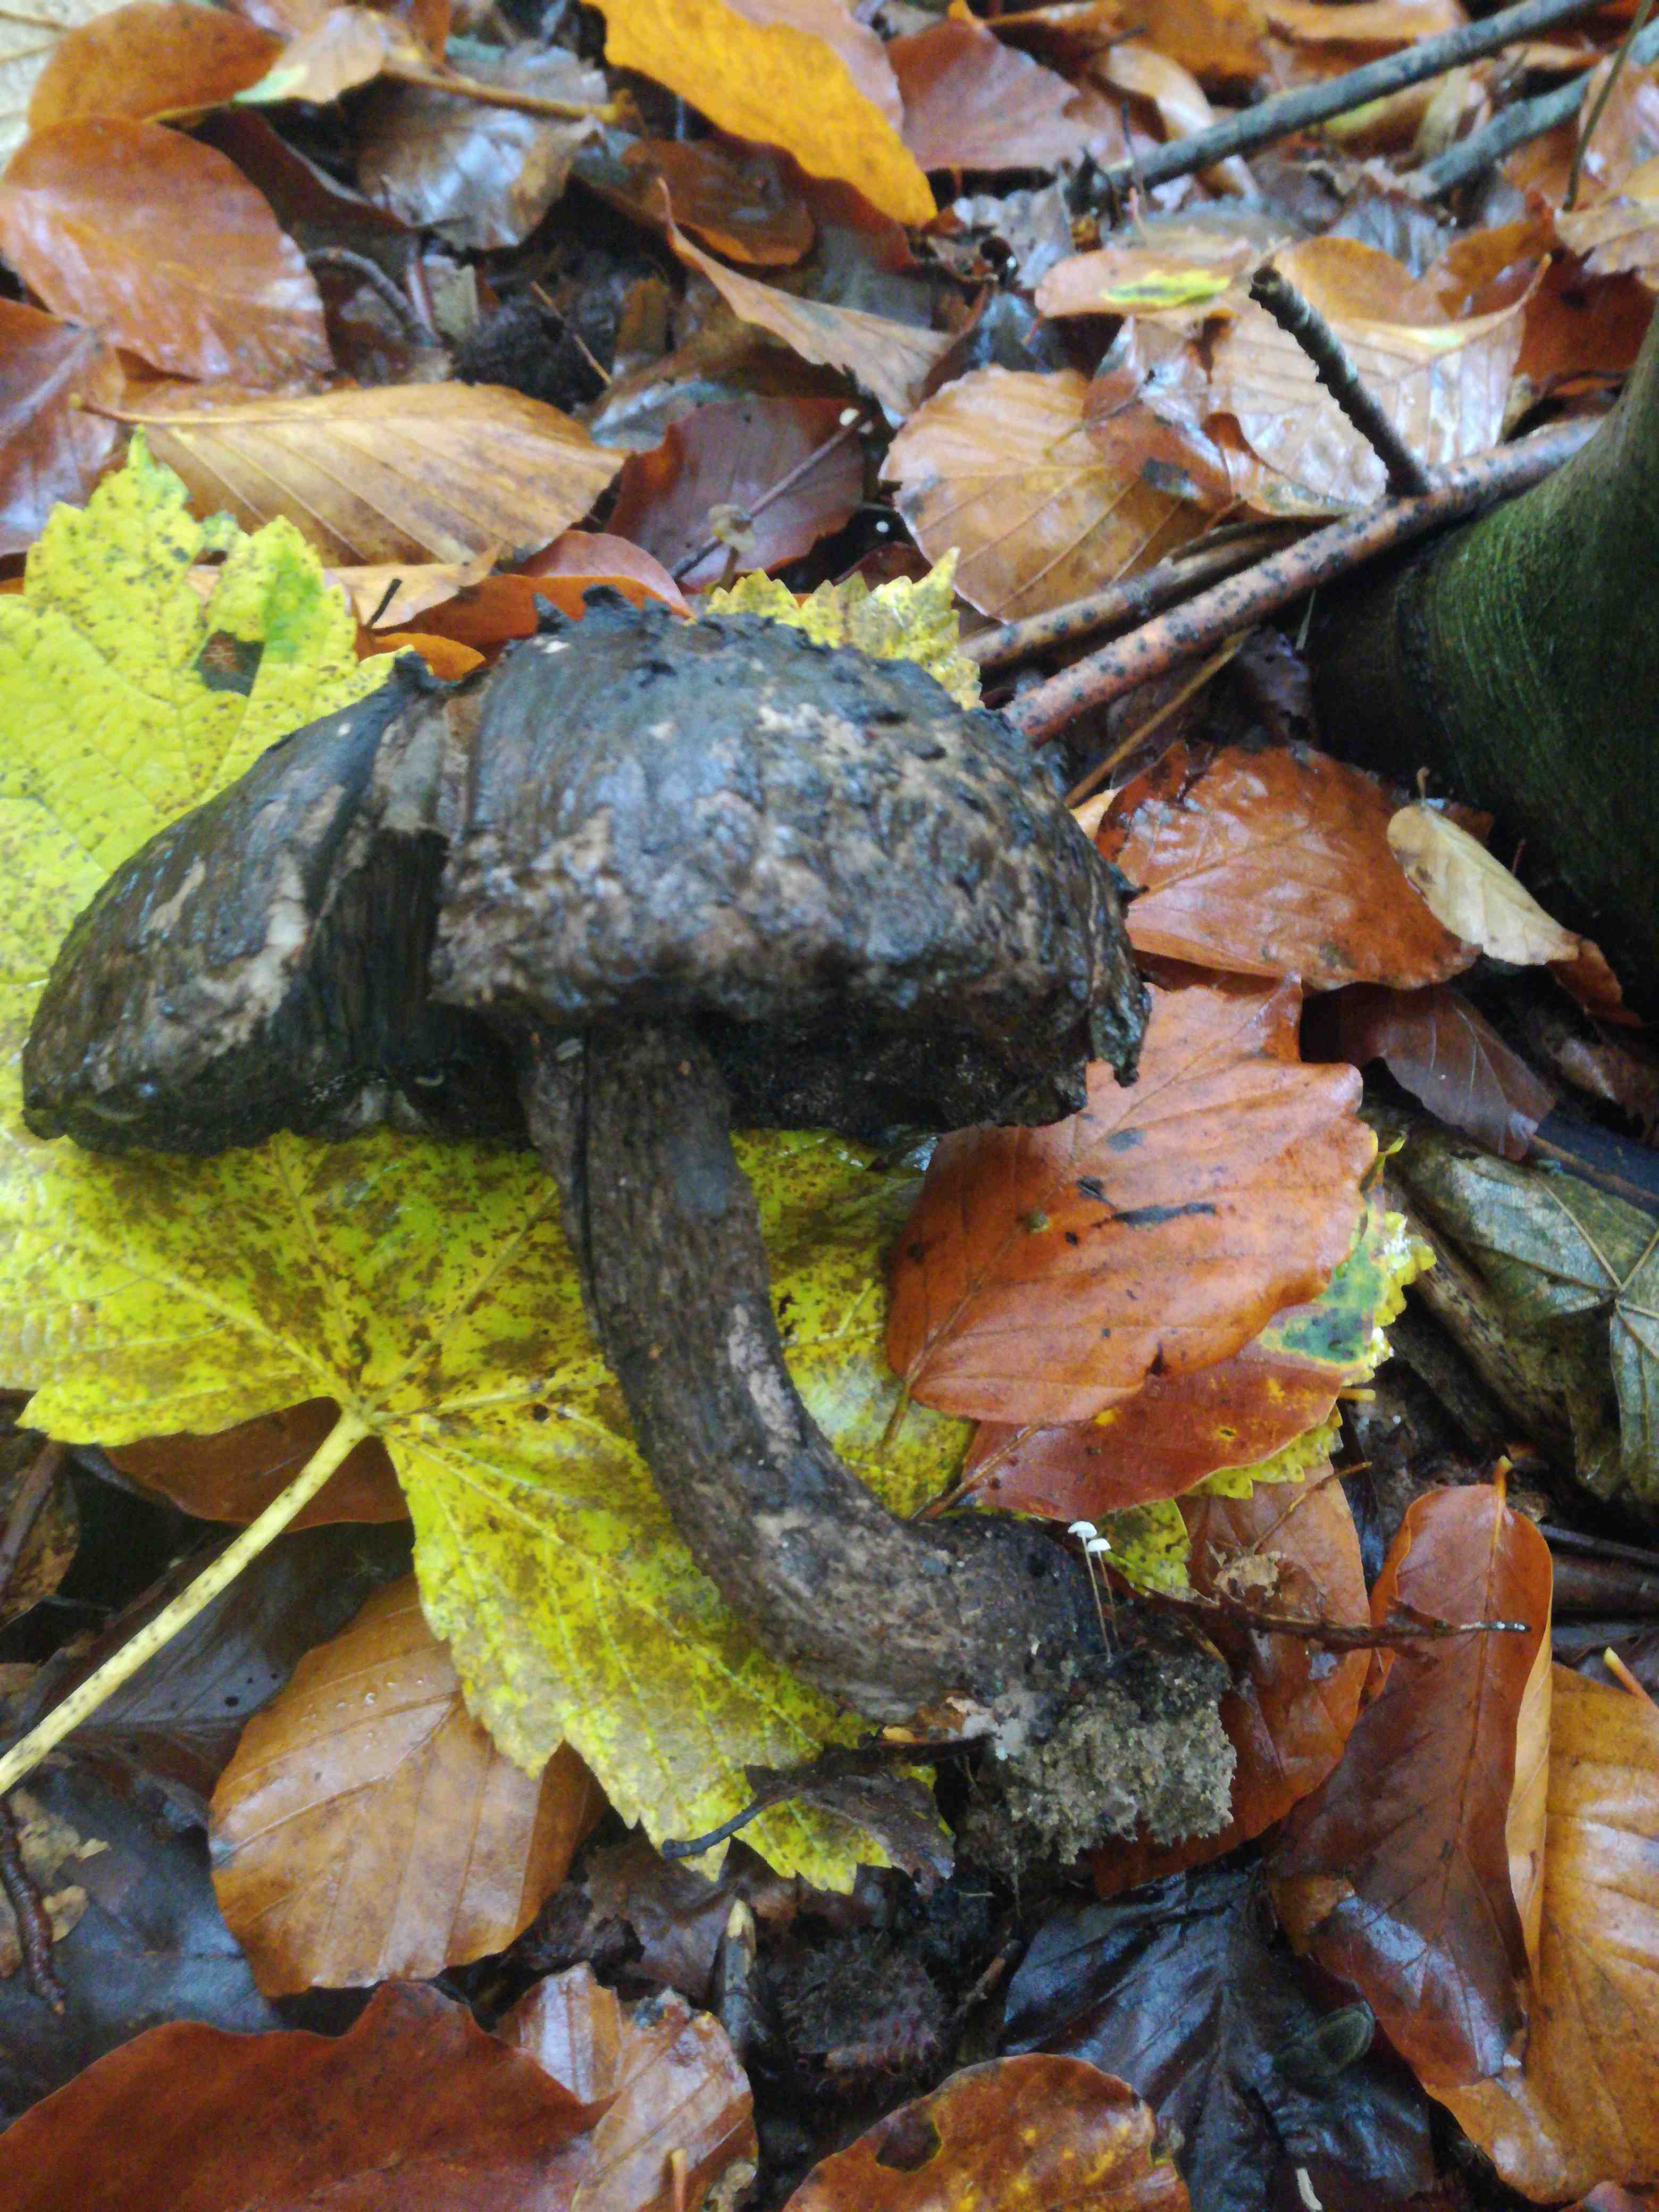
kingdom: Fungi
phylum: Basidiomycota
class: Agaricomycetes
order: Boletales
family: Boletaceae
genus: Strobilomyces
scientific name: Strobilomyces strobilaceus
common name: koglerørhat
